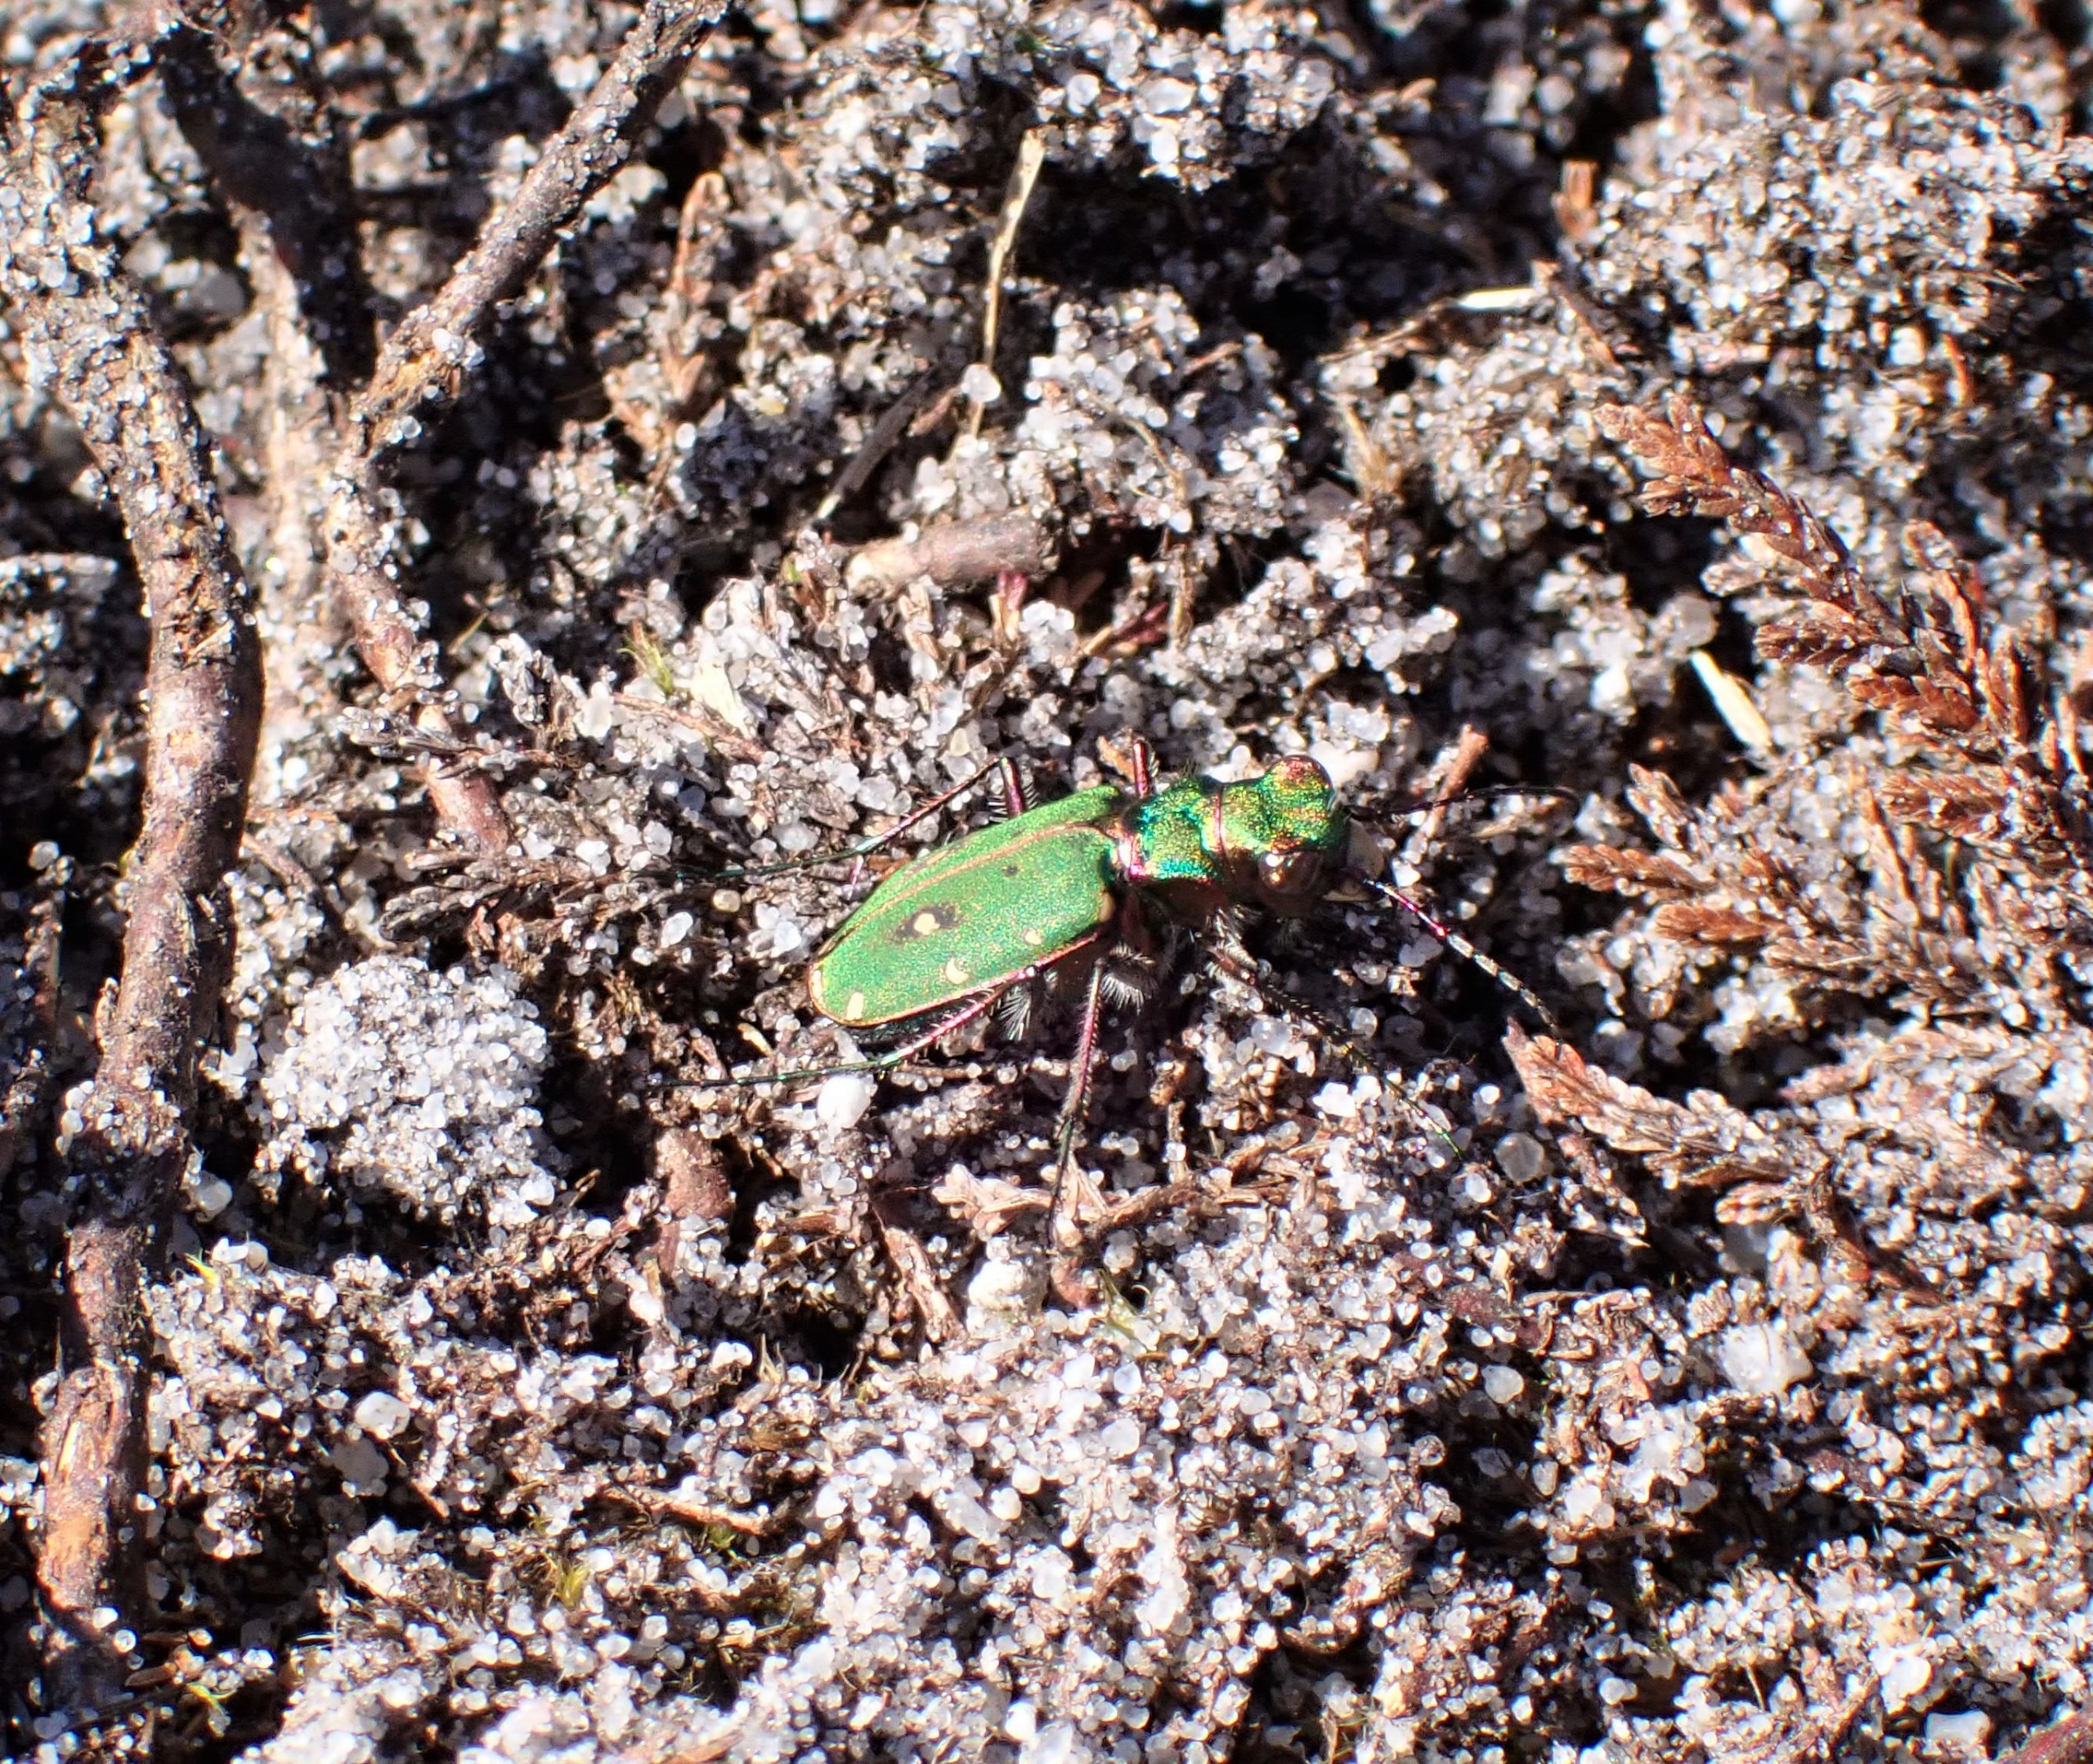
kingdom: Animalia
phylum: Arthropoda
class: Insecta
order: Coleoptera
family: Carabidae
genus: Cicindela
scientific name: Cicindela campestris
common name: Grøn sandspringer
